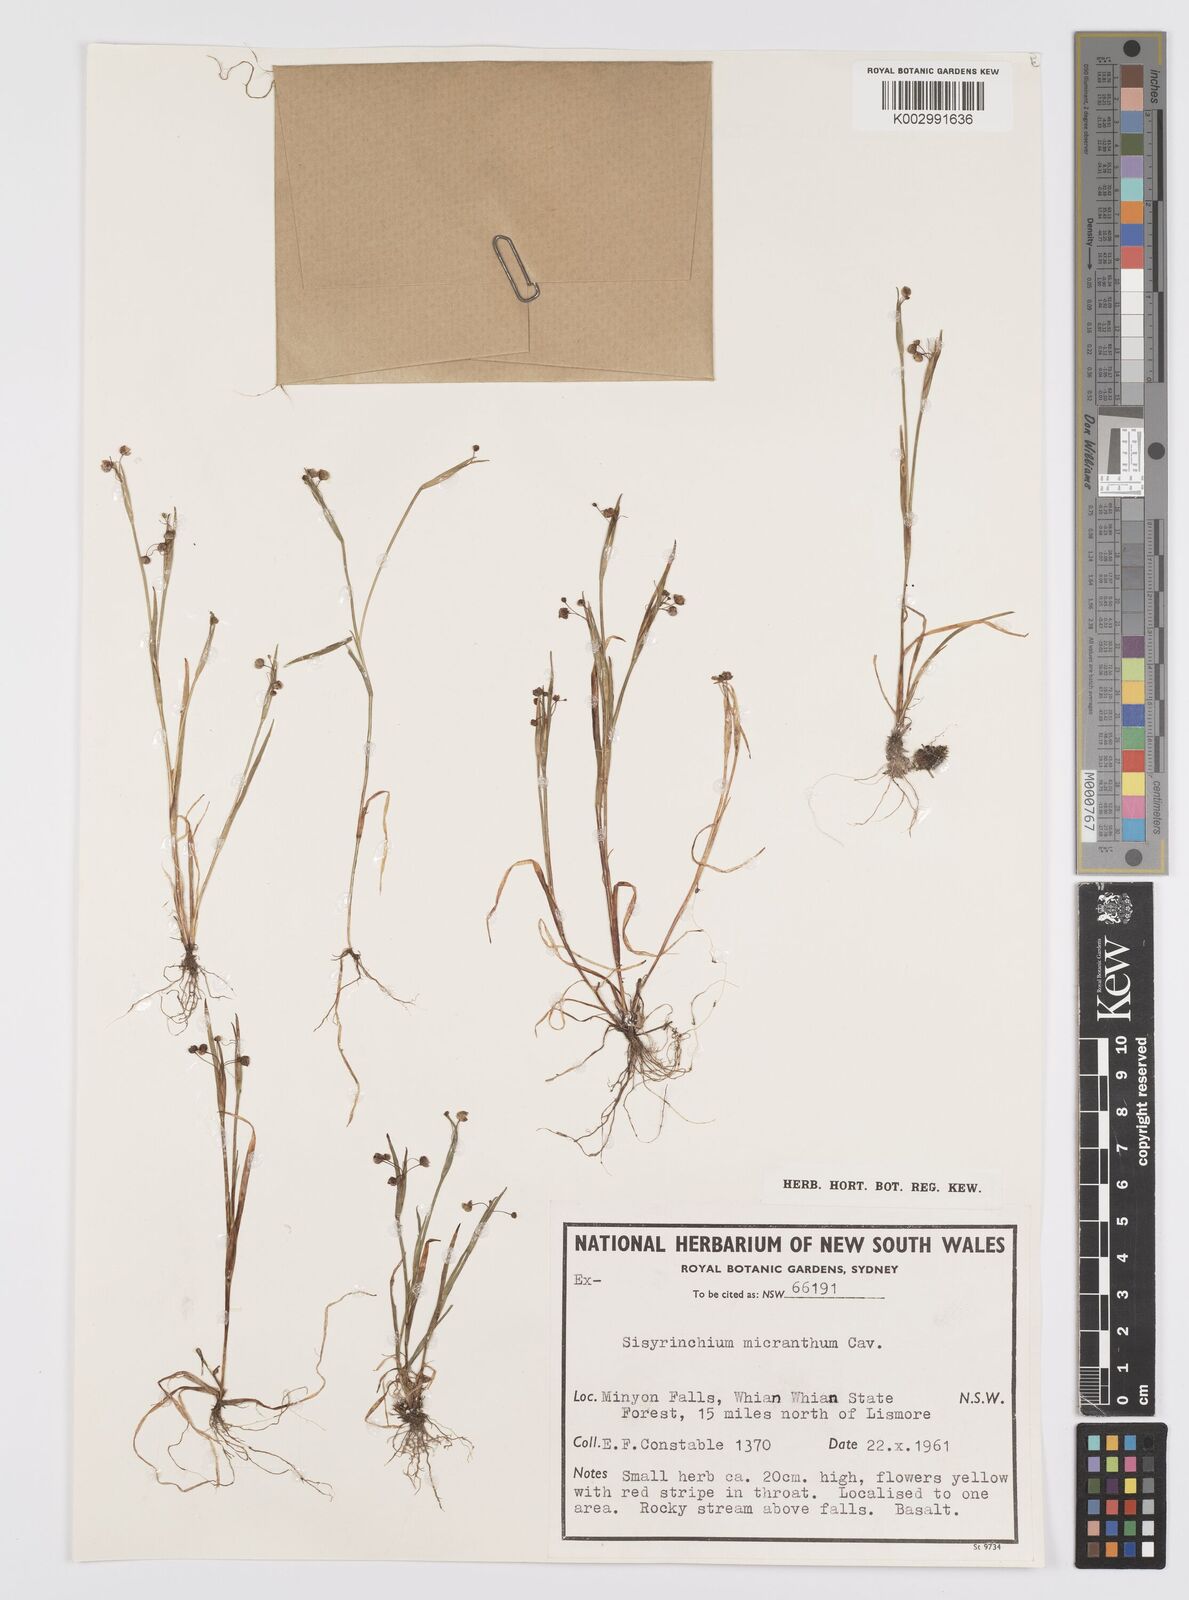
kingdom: Plantae
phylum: Tracheophyta
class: Liliopsida
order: Asparagales
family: Iridaceae
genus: Sisyrinchium
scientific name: Sisyrinchium micranthum
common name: Bermuda pigroot
